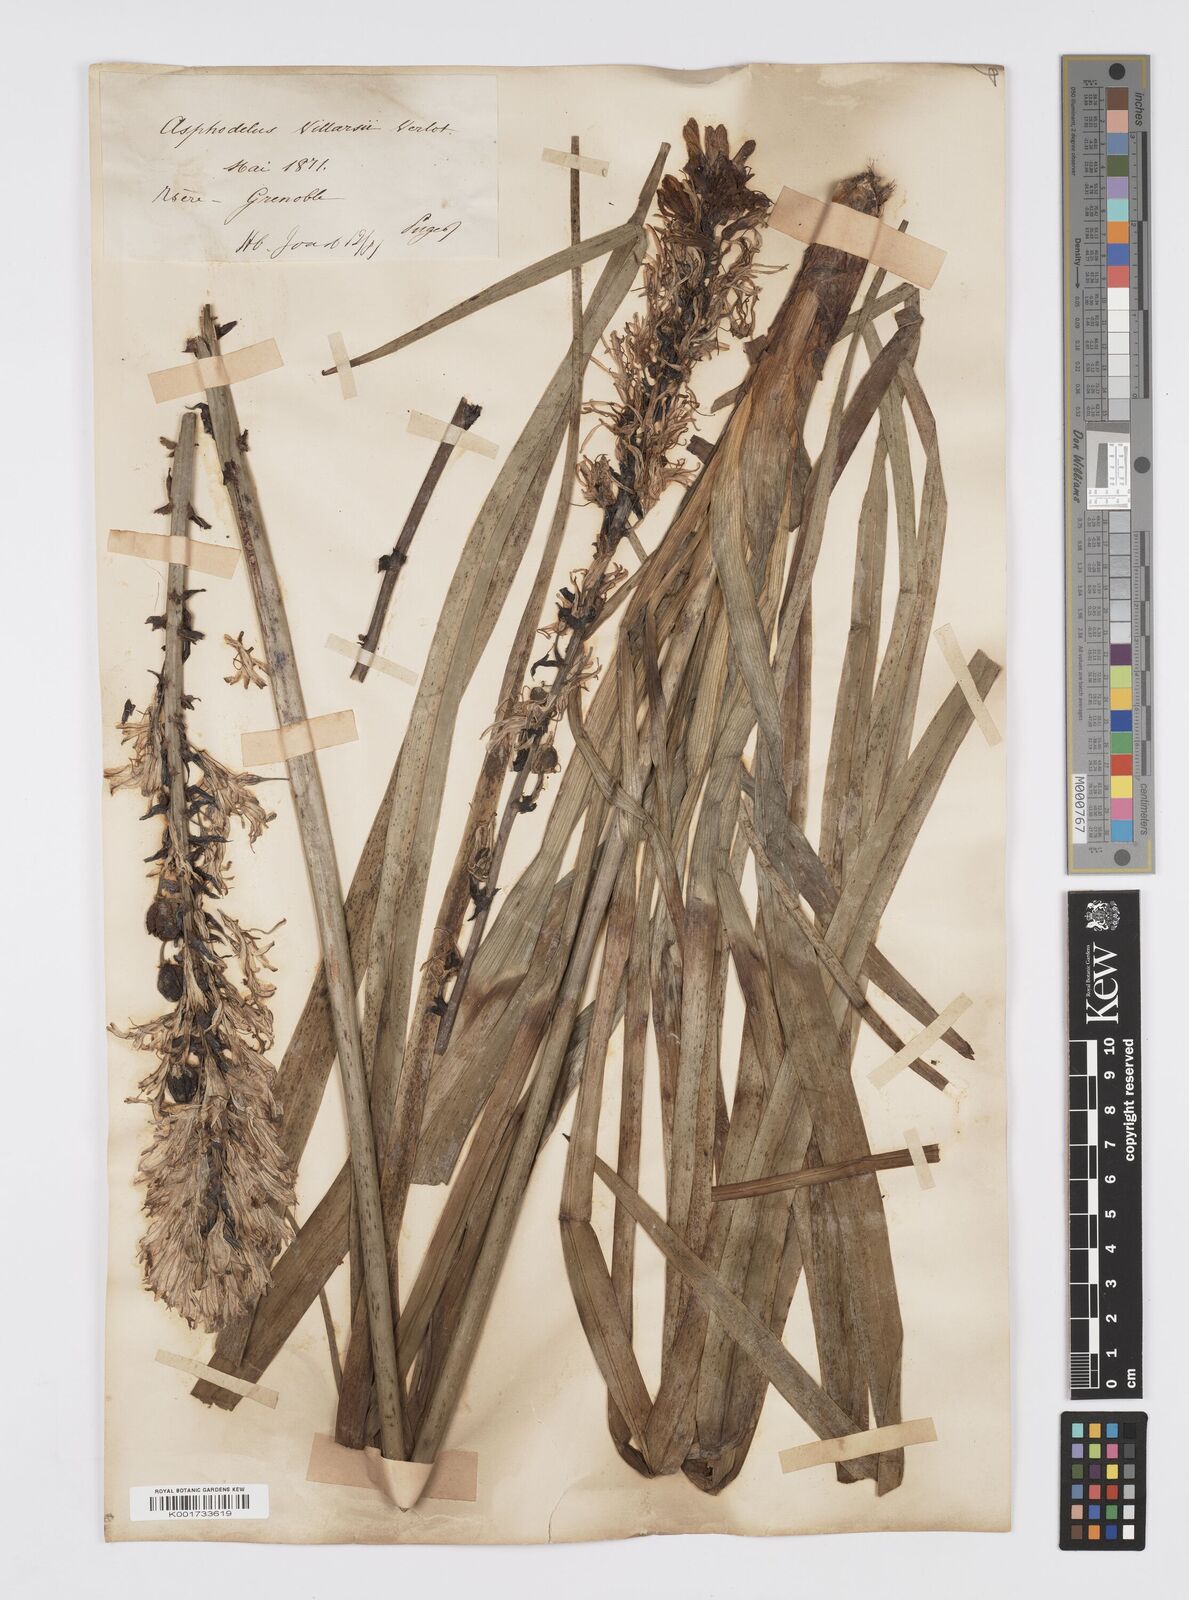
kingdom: Plantae
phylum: Tracheophyta
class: Liliopsida
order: Asparagales
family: Asphodelaceae
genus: Asphodelus
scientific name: Asphodelus cerasifer
